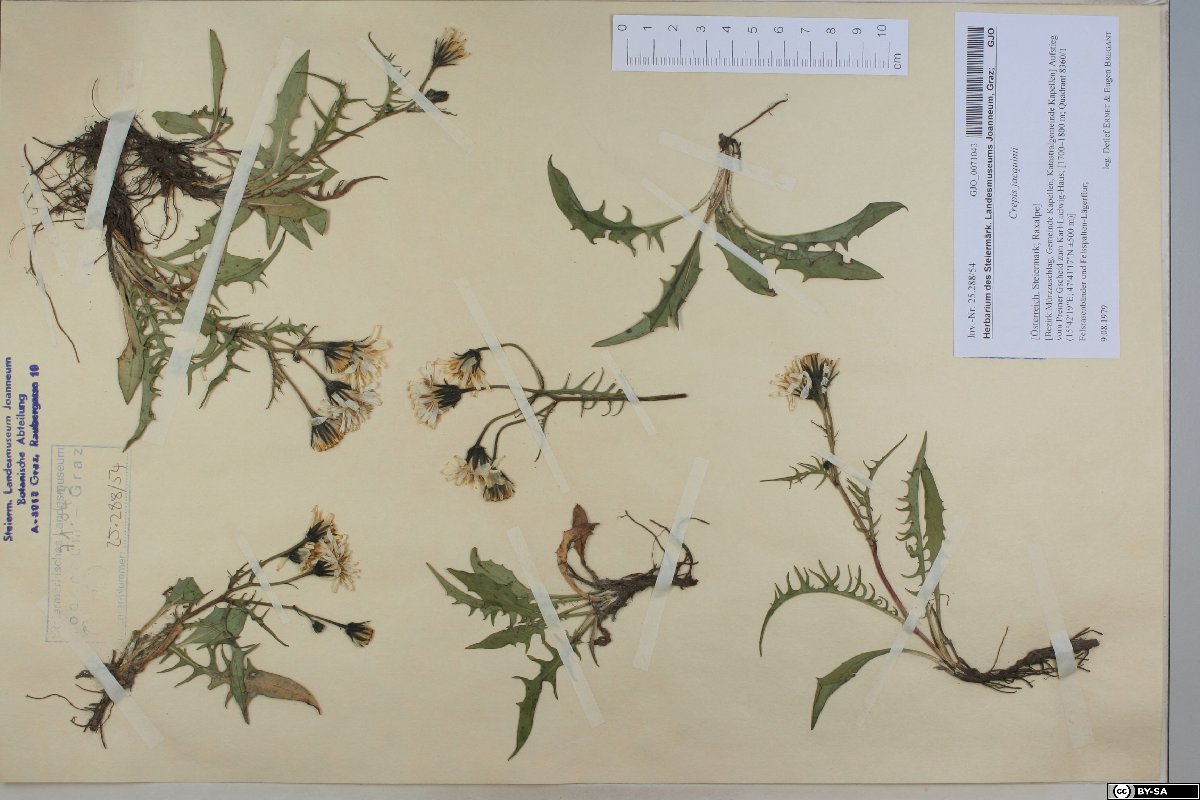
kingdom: Plantae
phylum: Tracheophyta
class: Magnoliopsida
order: Asterales
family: Asteraceae
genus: Crepis
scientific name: Crepis jacquinii
